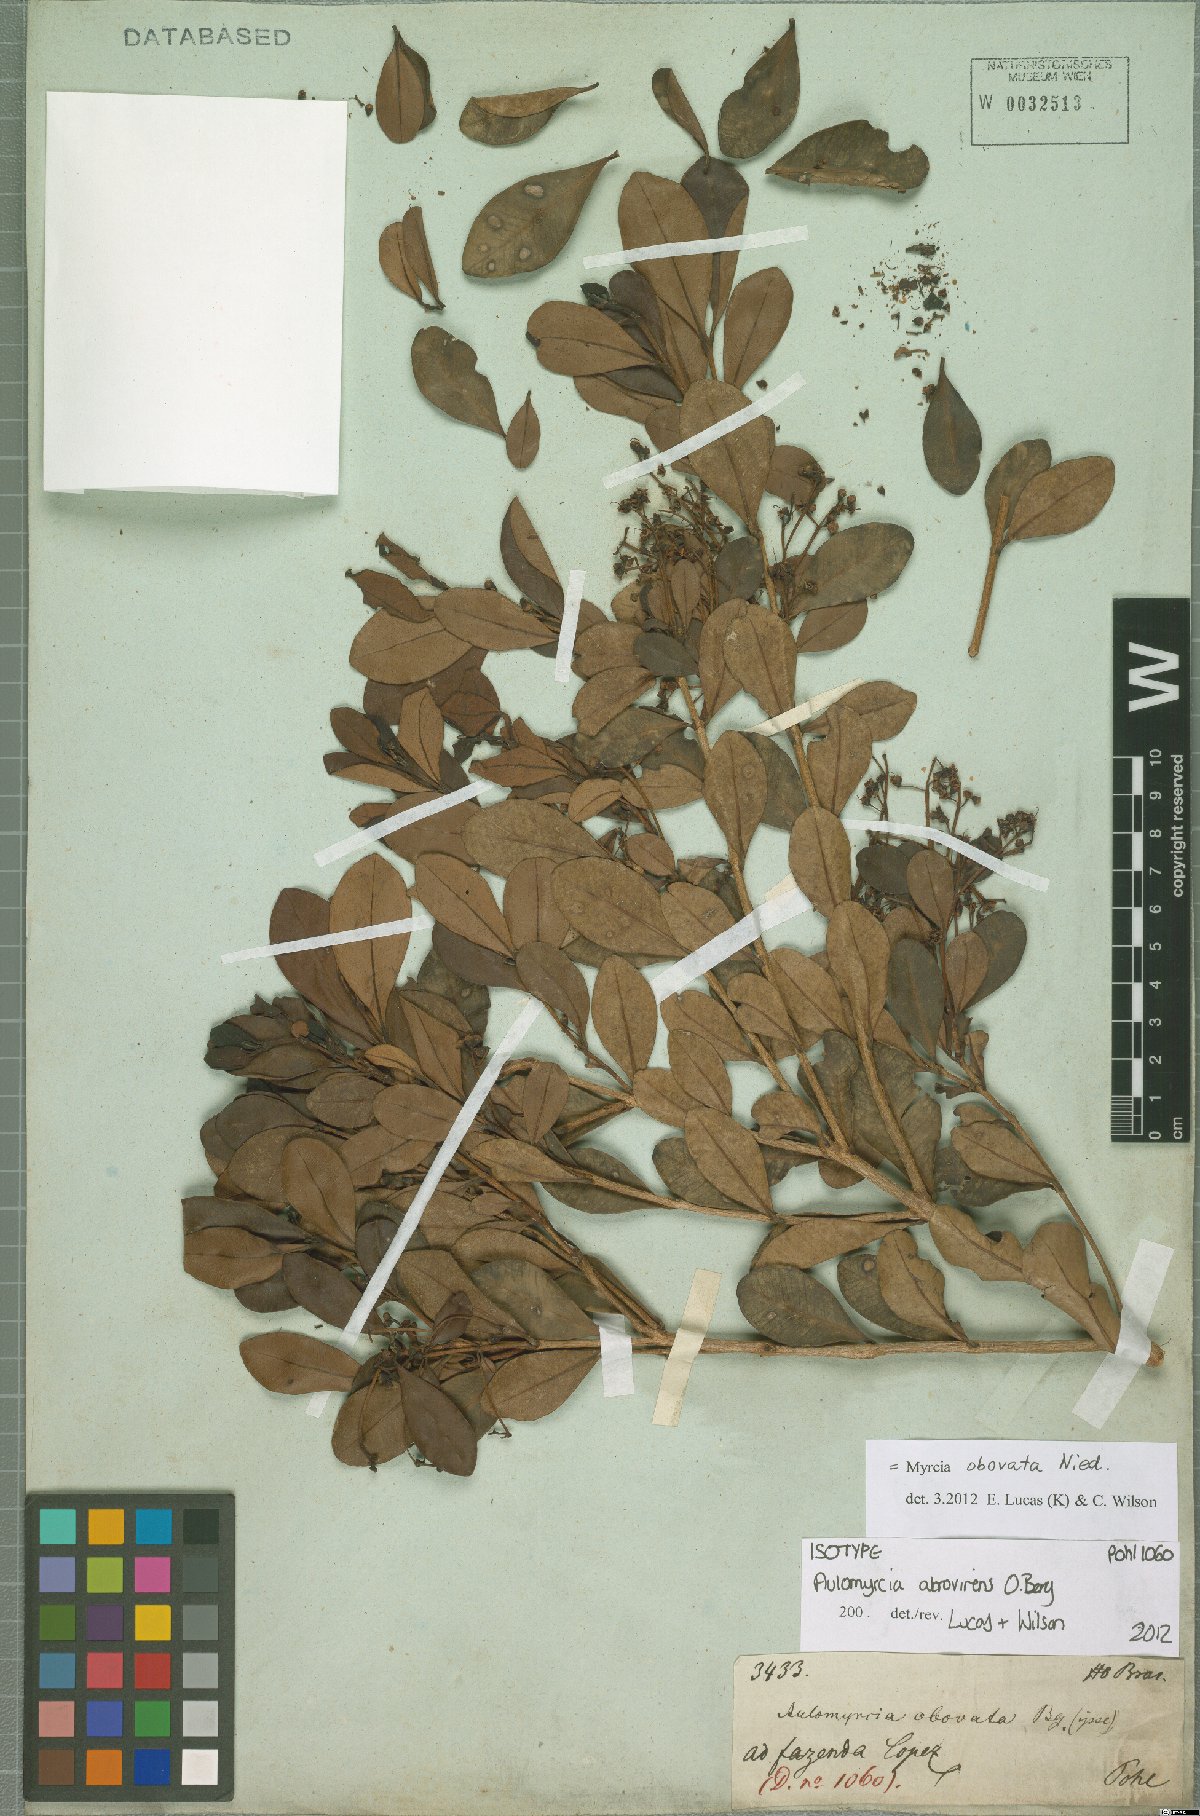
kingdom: Plantae
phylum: Tracheophyta
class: Magnoliopsida
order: Myrtales
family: Myrtaceae
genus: Myrcia
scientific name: Myrcia obovata
